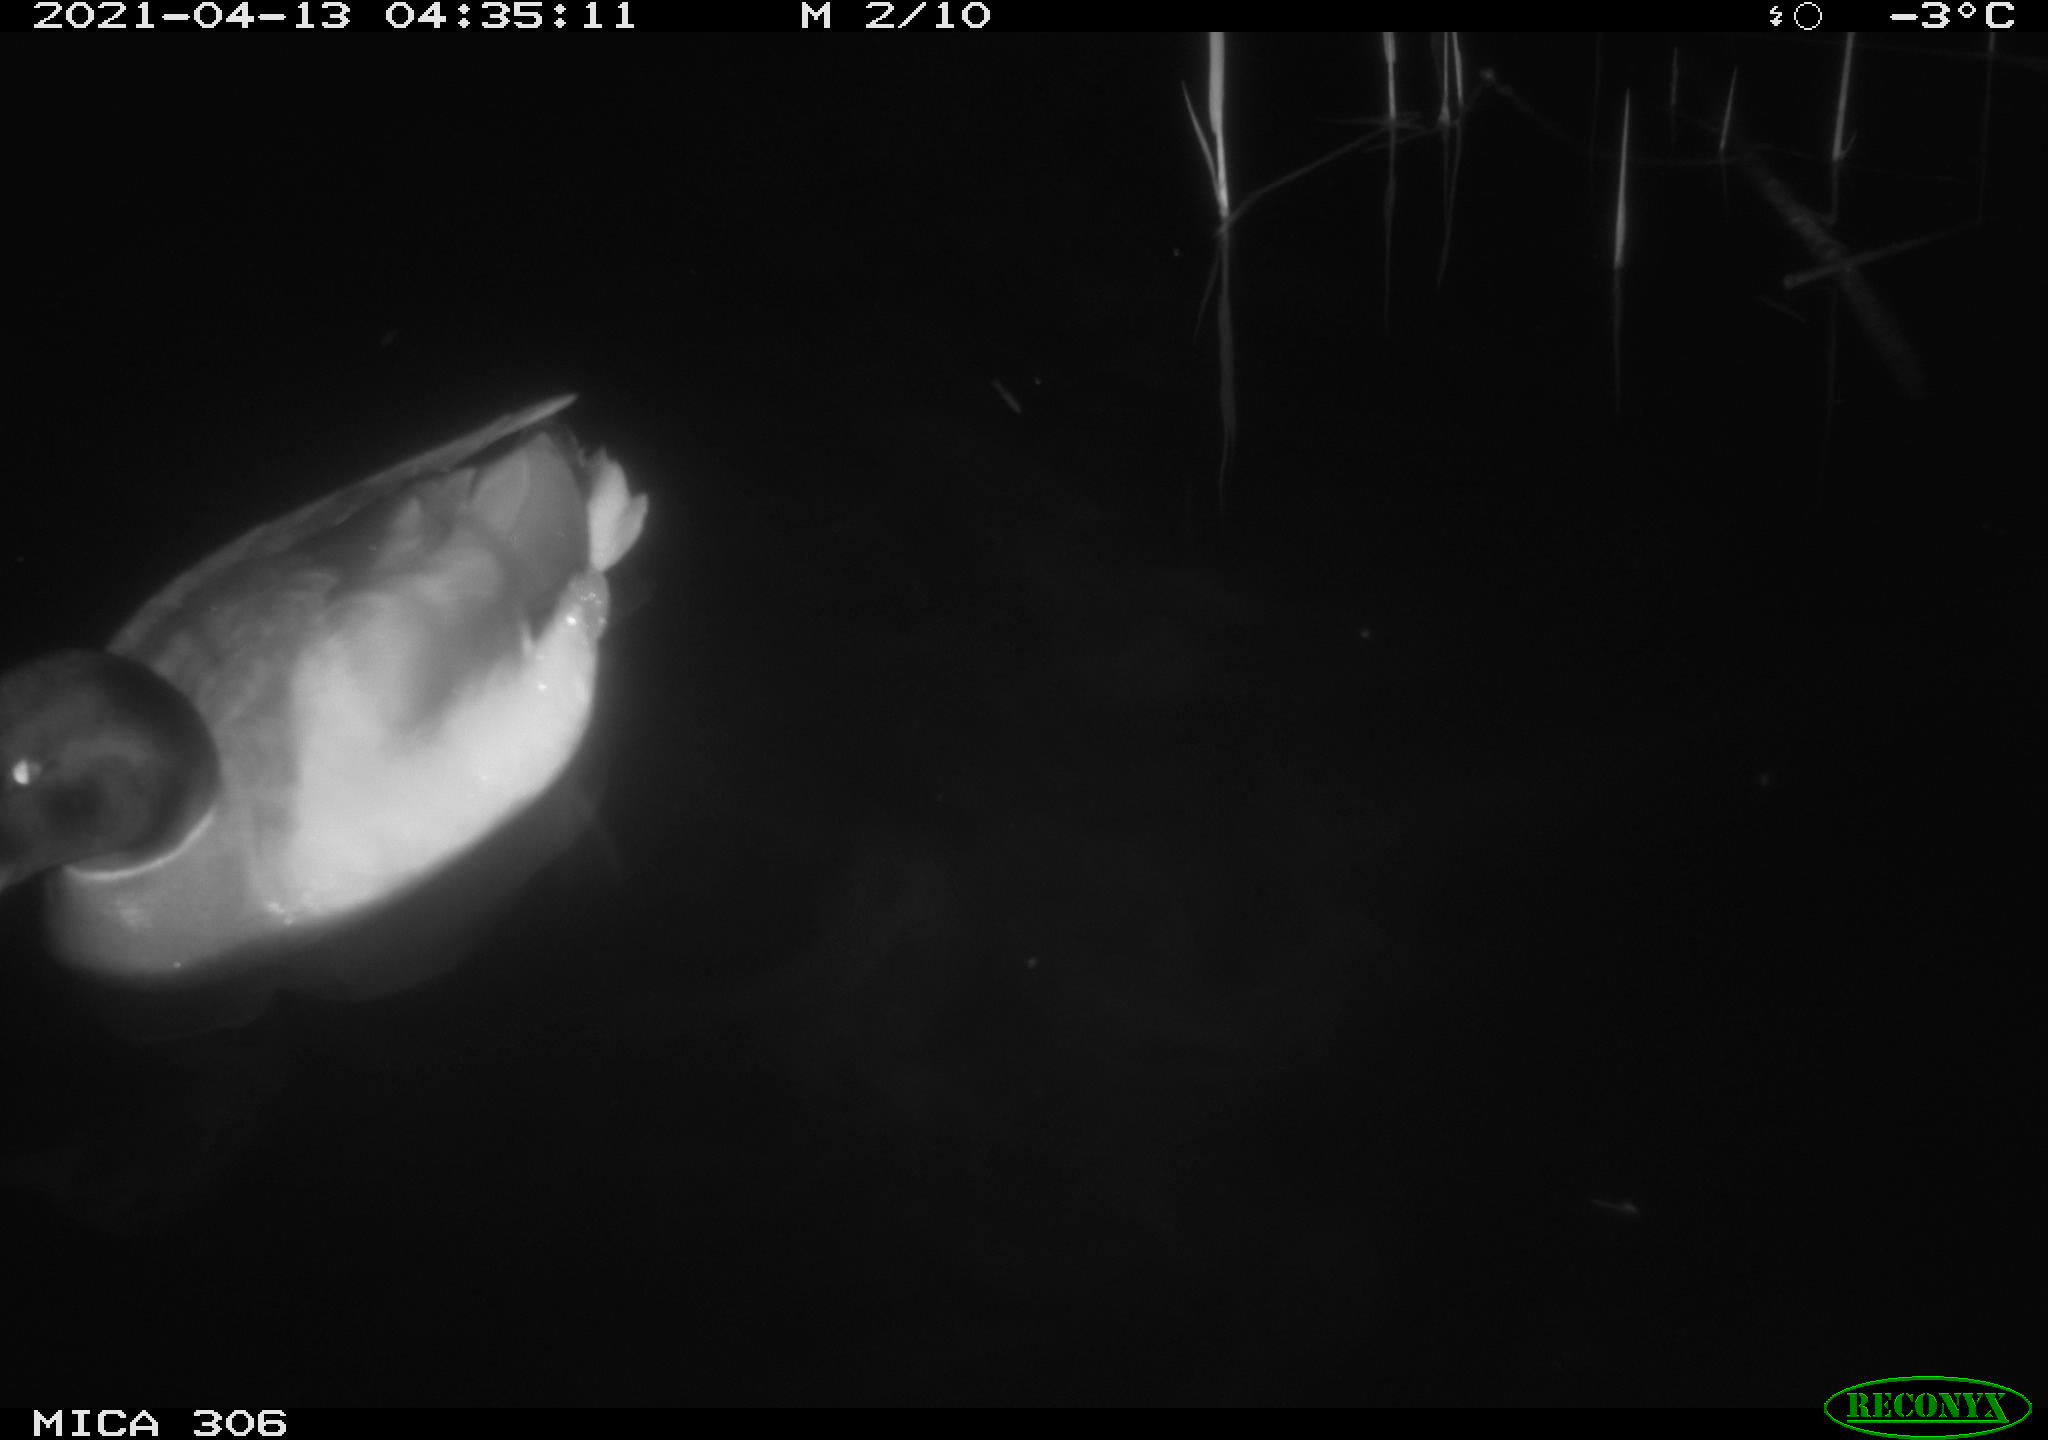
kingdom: Animalia
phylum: Chordata
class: Aves
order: Anseriformes
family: Anatidae
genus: Anas
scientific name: Anas
